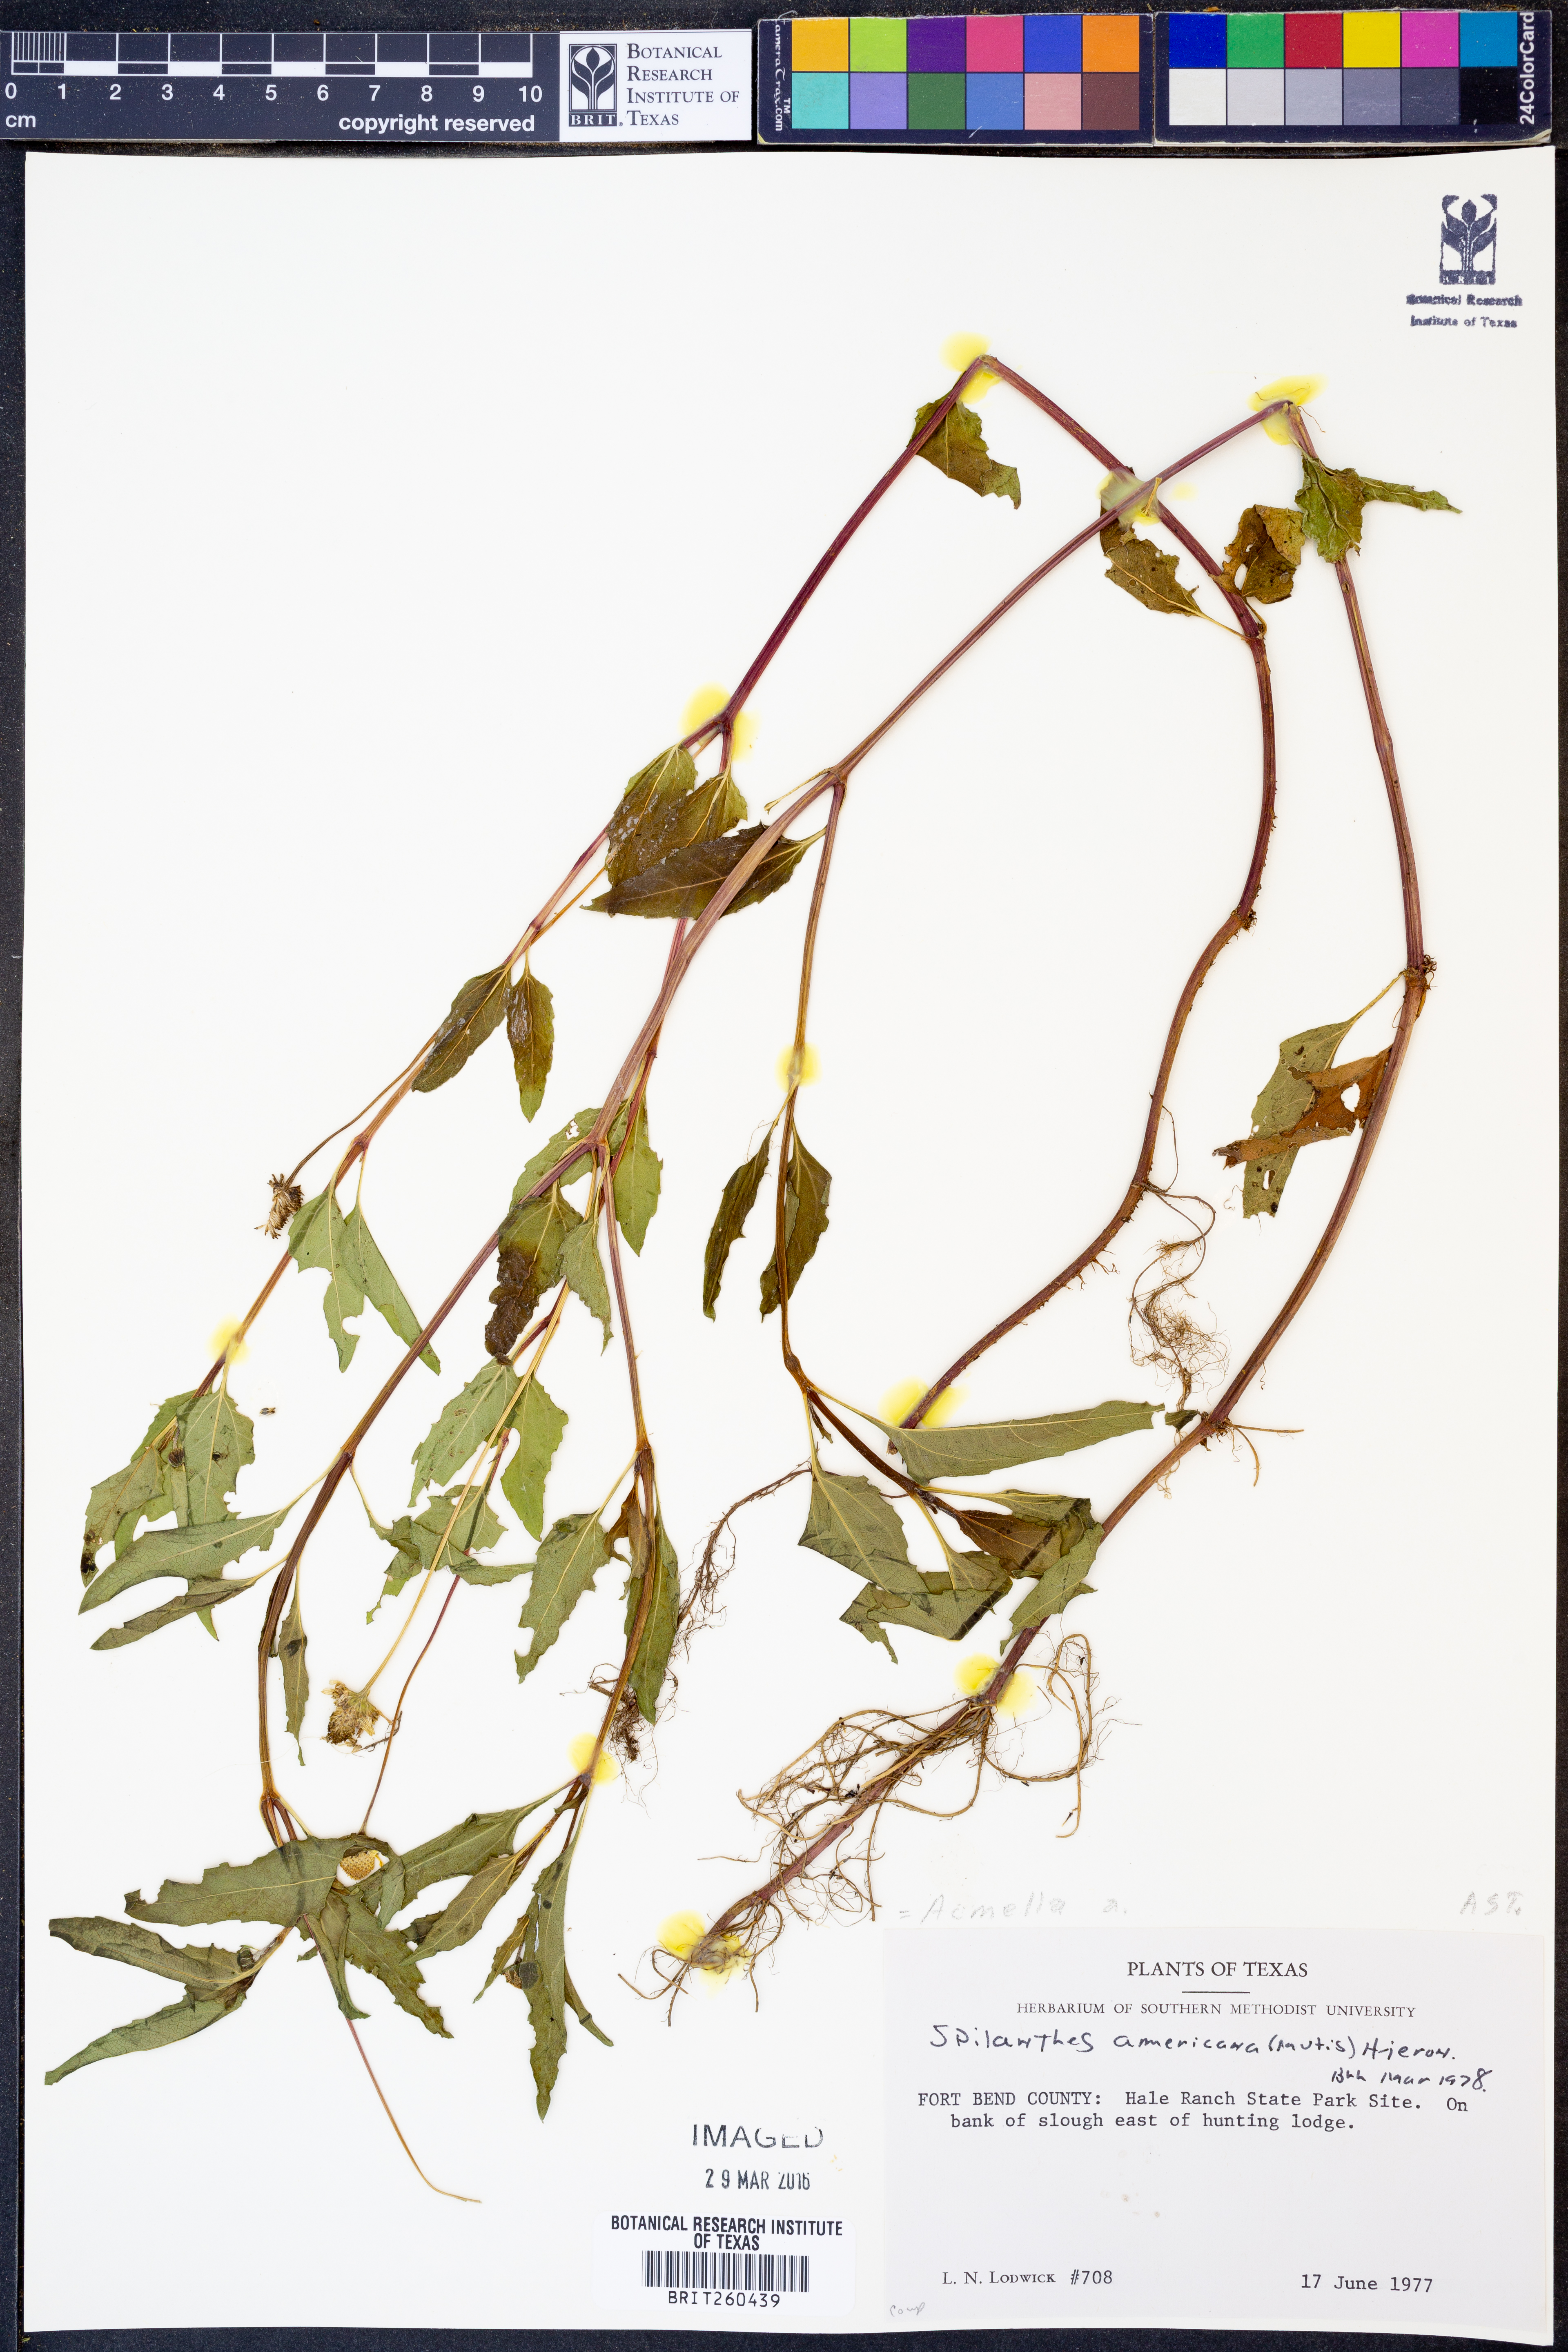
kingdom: Plantae
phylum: Tracheophyta
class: Magnoliopsida
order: Asterales
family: Asteraceae
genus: Acmella
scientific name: Acmella
